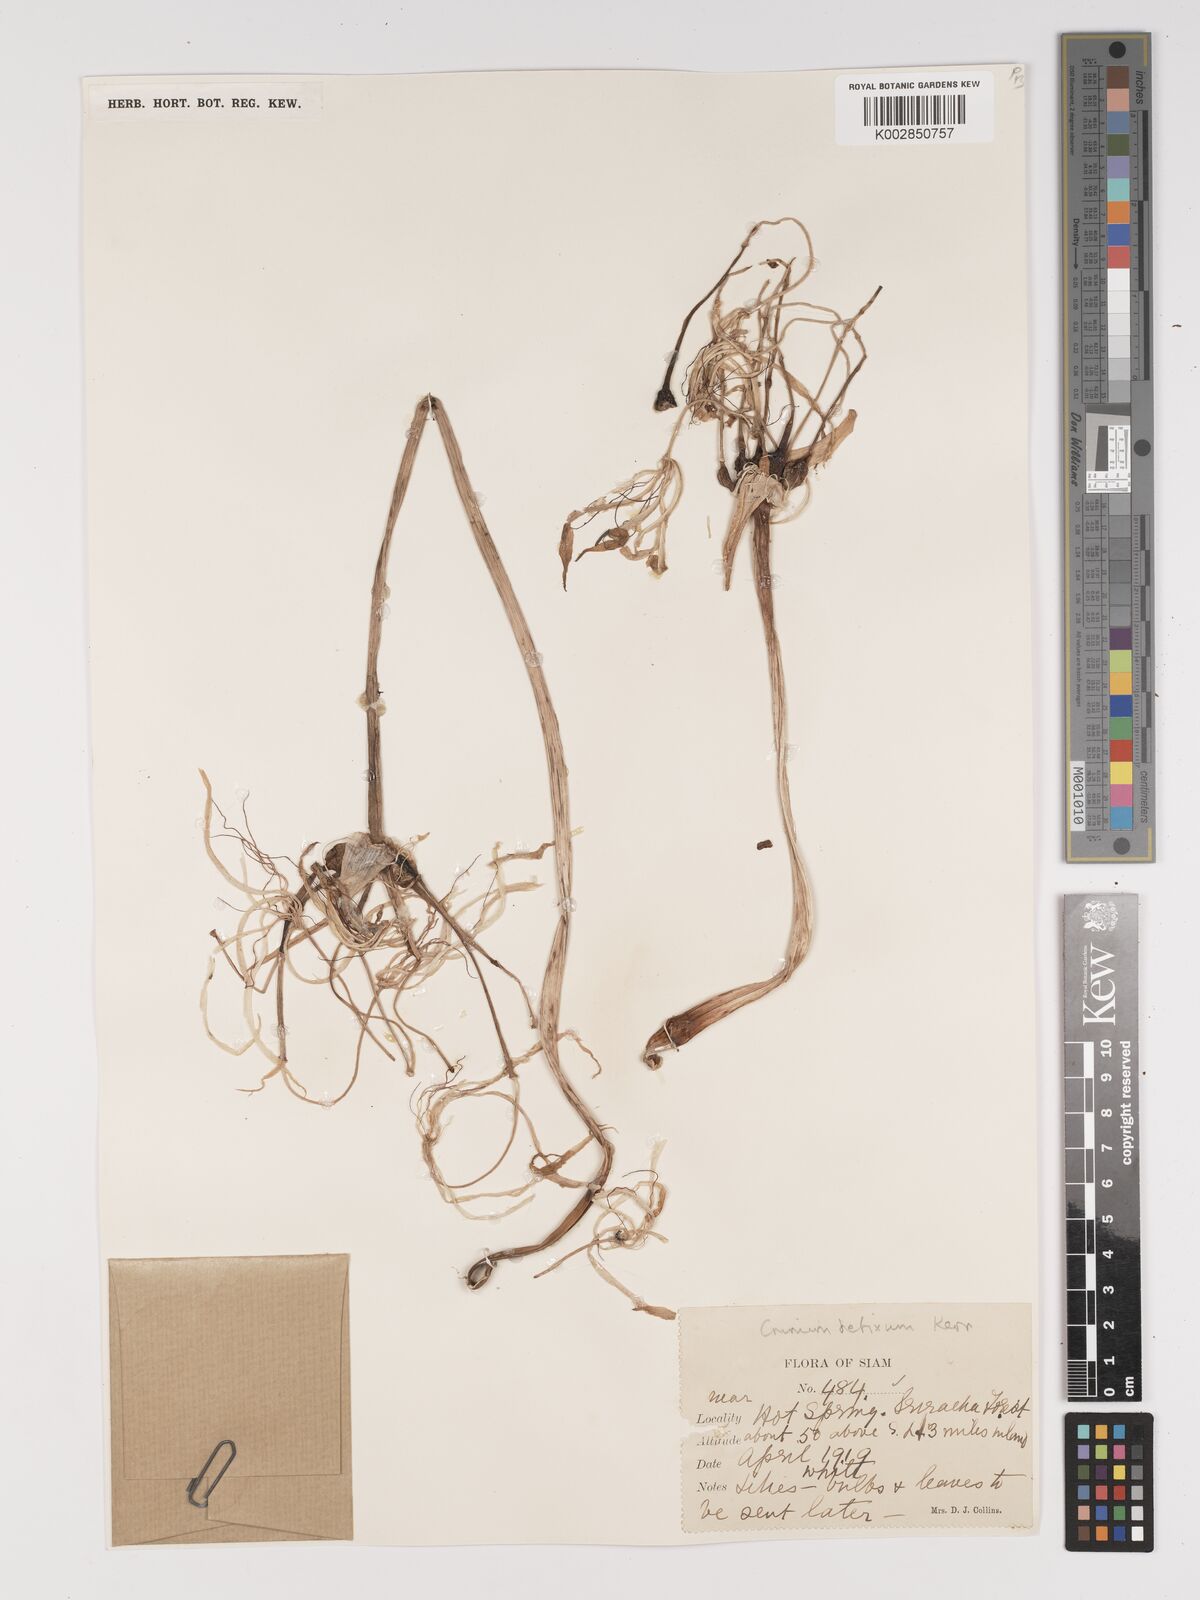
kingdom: Plantae
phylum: Tracheophyta
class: Liliopsida
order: Asparagales
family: Amaryllidaceae
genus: Crinum
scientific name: Crinum defixum
